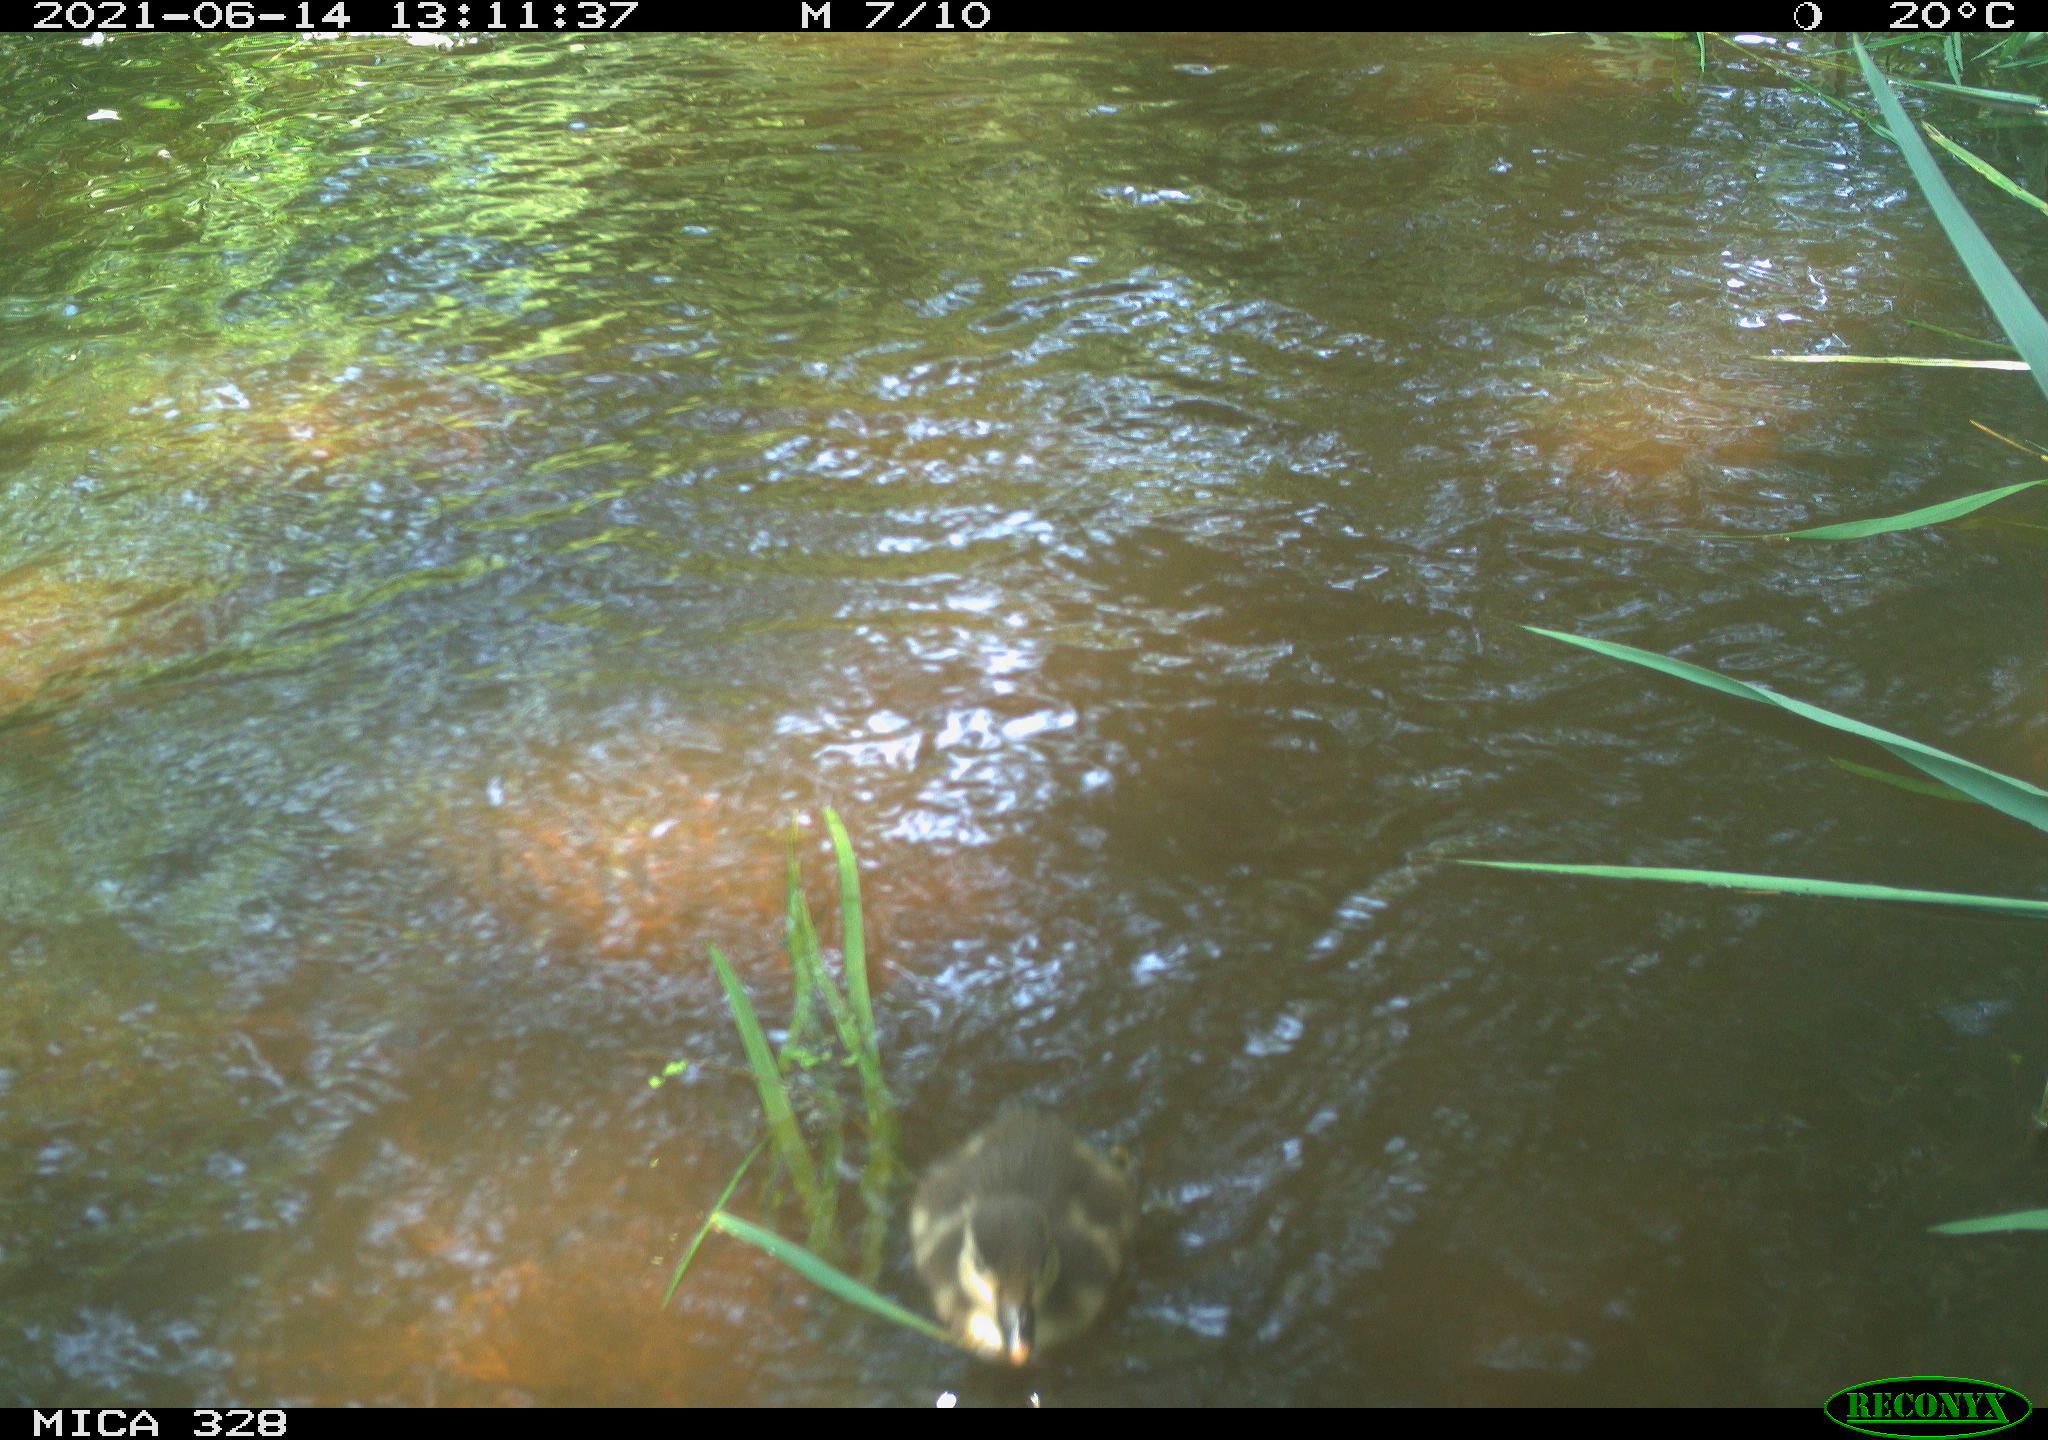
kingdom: Animalia
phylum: Chordata
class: Aves
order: Anseriformes
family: Anatidae
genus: Aix
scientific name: Aix galericulata
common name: Mandarin duck
